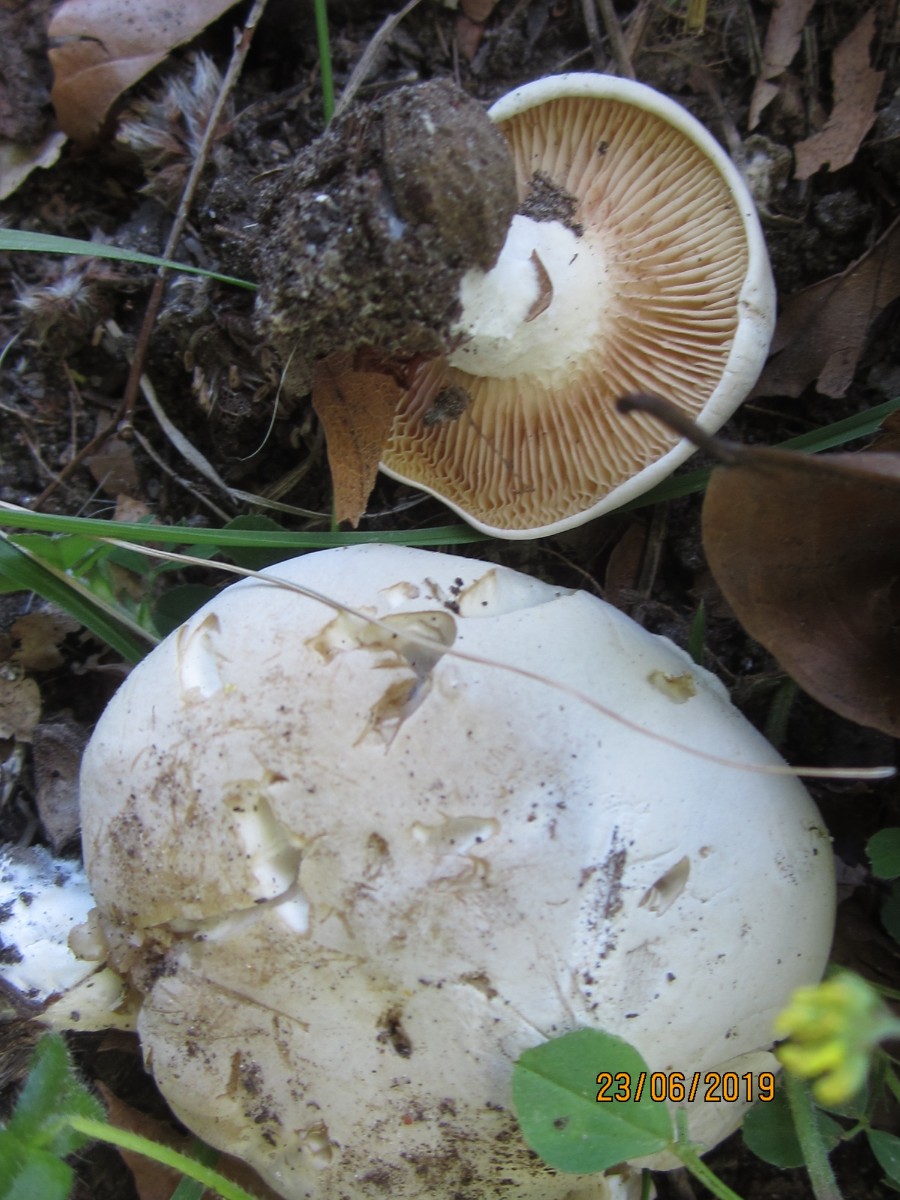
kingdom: Fungi
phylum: Basidiomycota
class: Agaricomycetes
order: Agaricales
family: Entolomataceae
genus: Clitopilus
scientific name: Clitopilus prunulus
